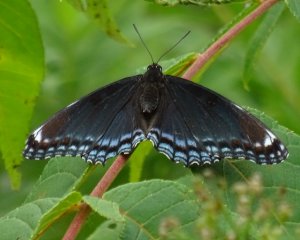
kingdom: Animalia
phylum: Arthropoda
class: Insecta
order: Lepidoptera
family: Nymphalidae
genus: Limenitis
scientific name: Limenitis astyanax
